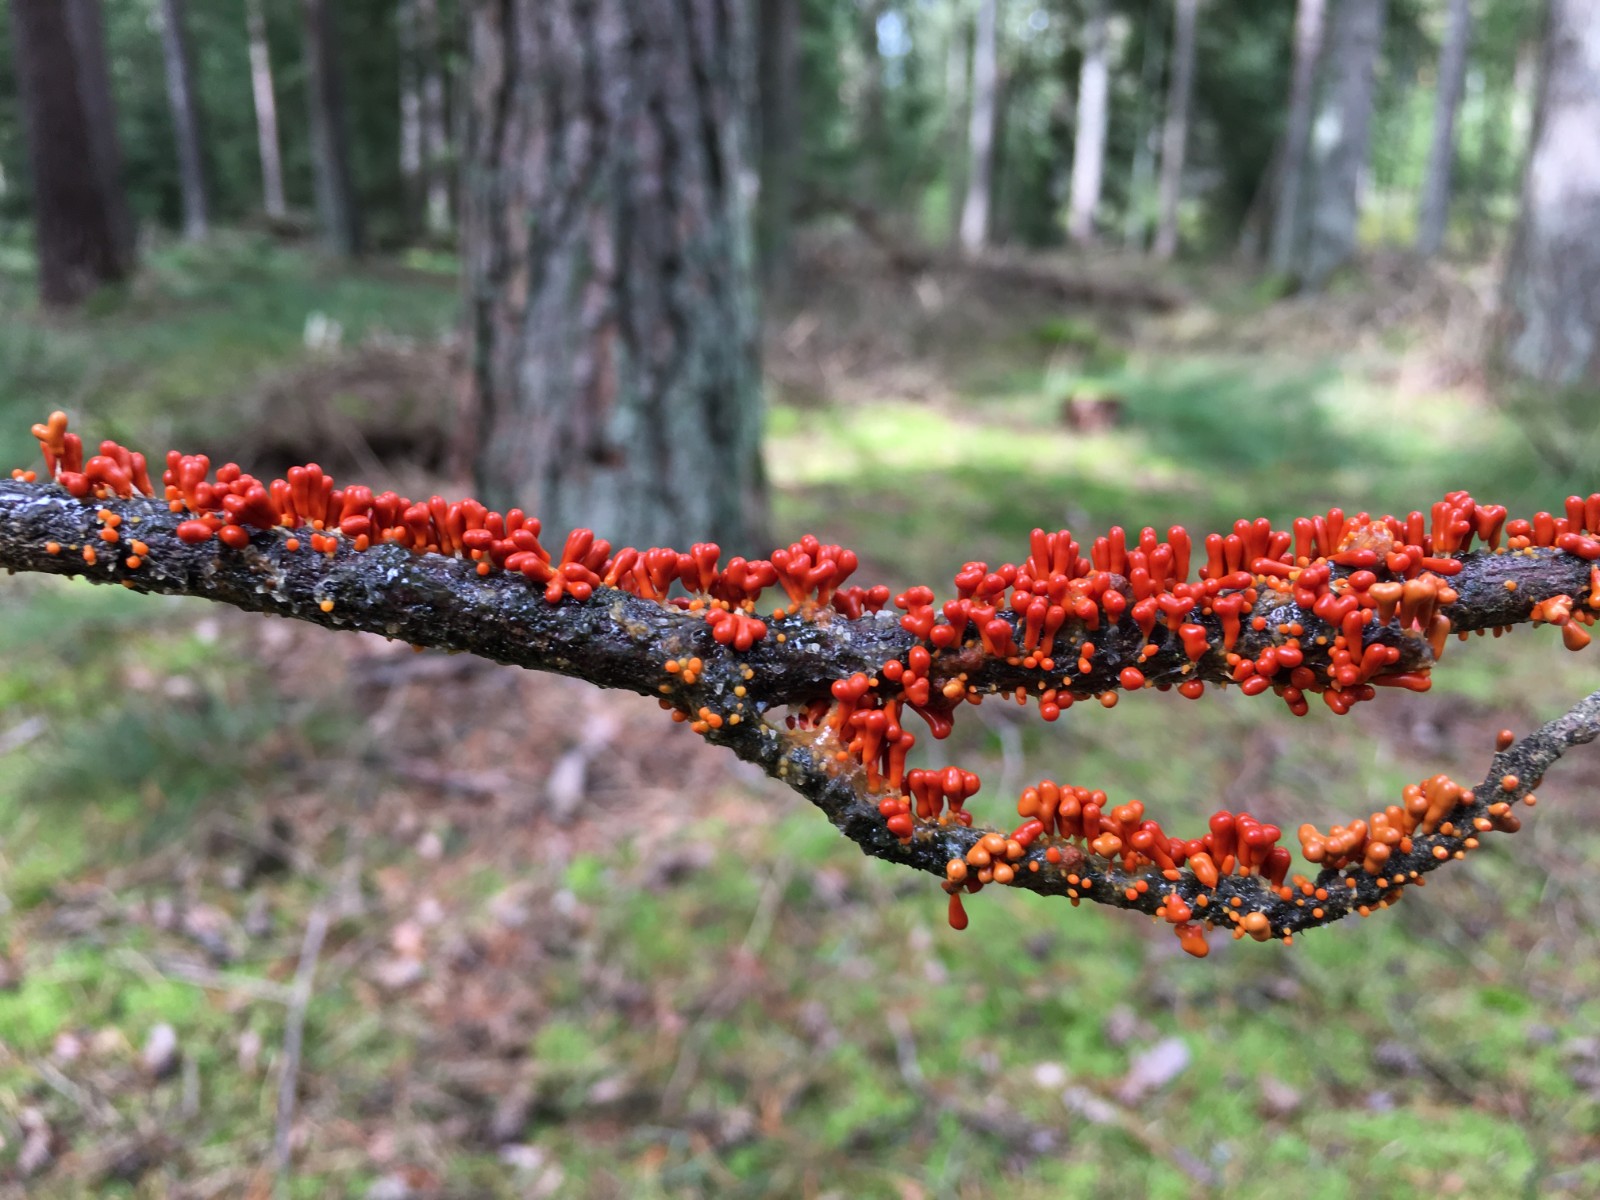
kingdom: Protozoa
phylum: Mycetozoa
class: Myxomycetes
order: Physarales
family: Physaraceae
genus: Leocarpus
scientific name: Leocarpus fragilis
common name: poleret glatfrø
